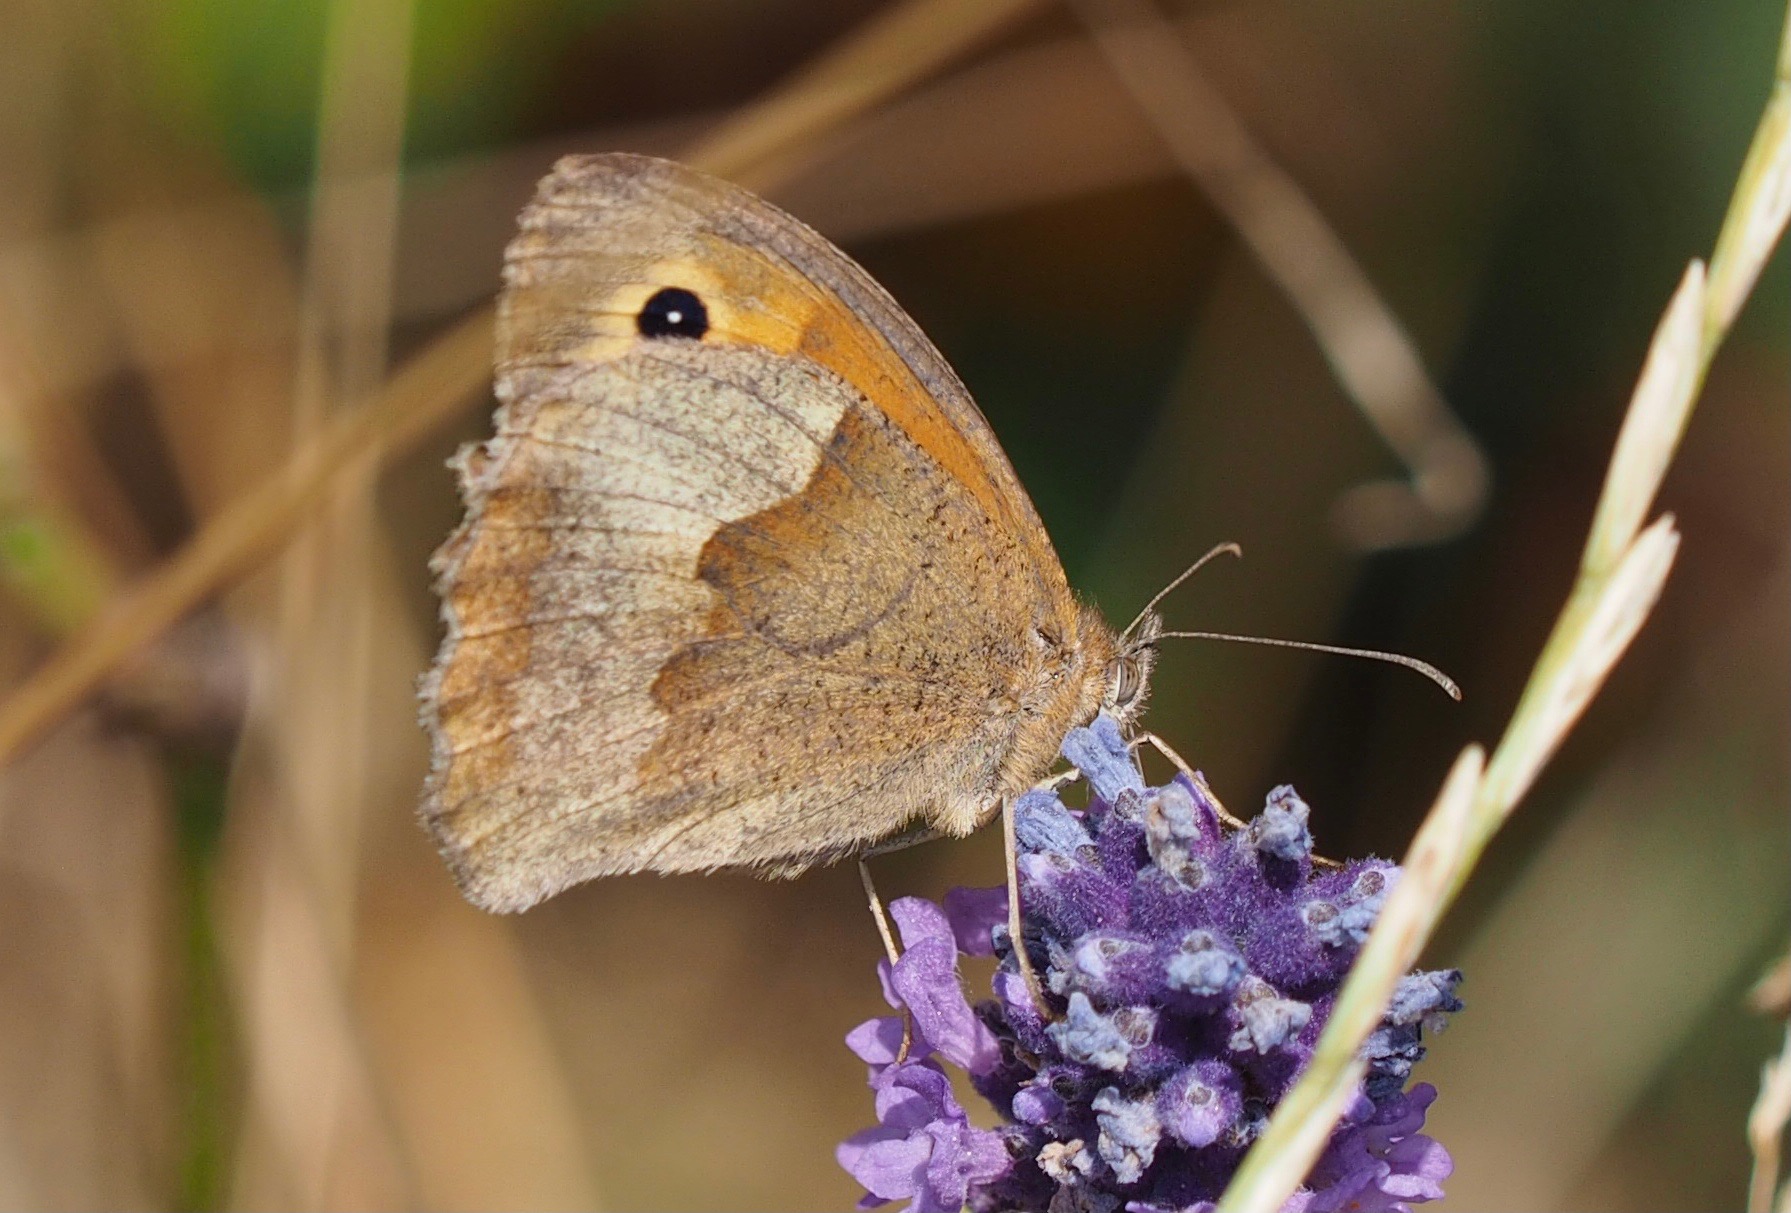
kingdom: Animalia
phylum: Arthropoda
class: Insecta
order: Lepidoptera
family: Nymphalidae
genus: Maniola
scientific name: Maniola jurtina
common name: Græsrandøje
